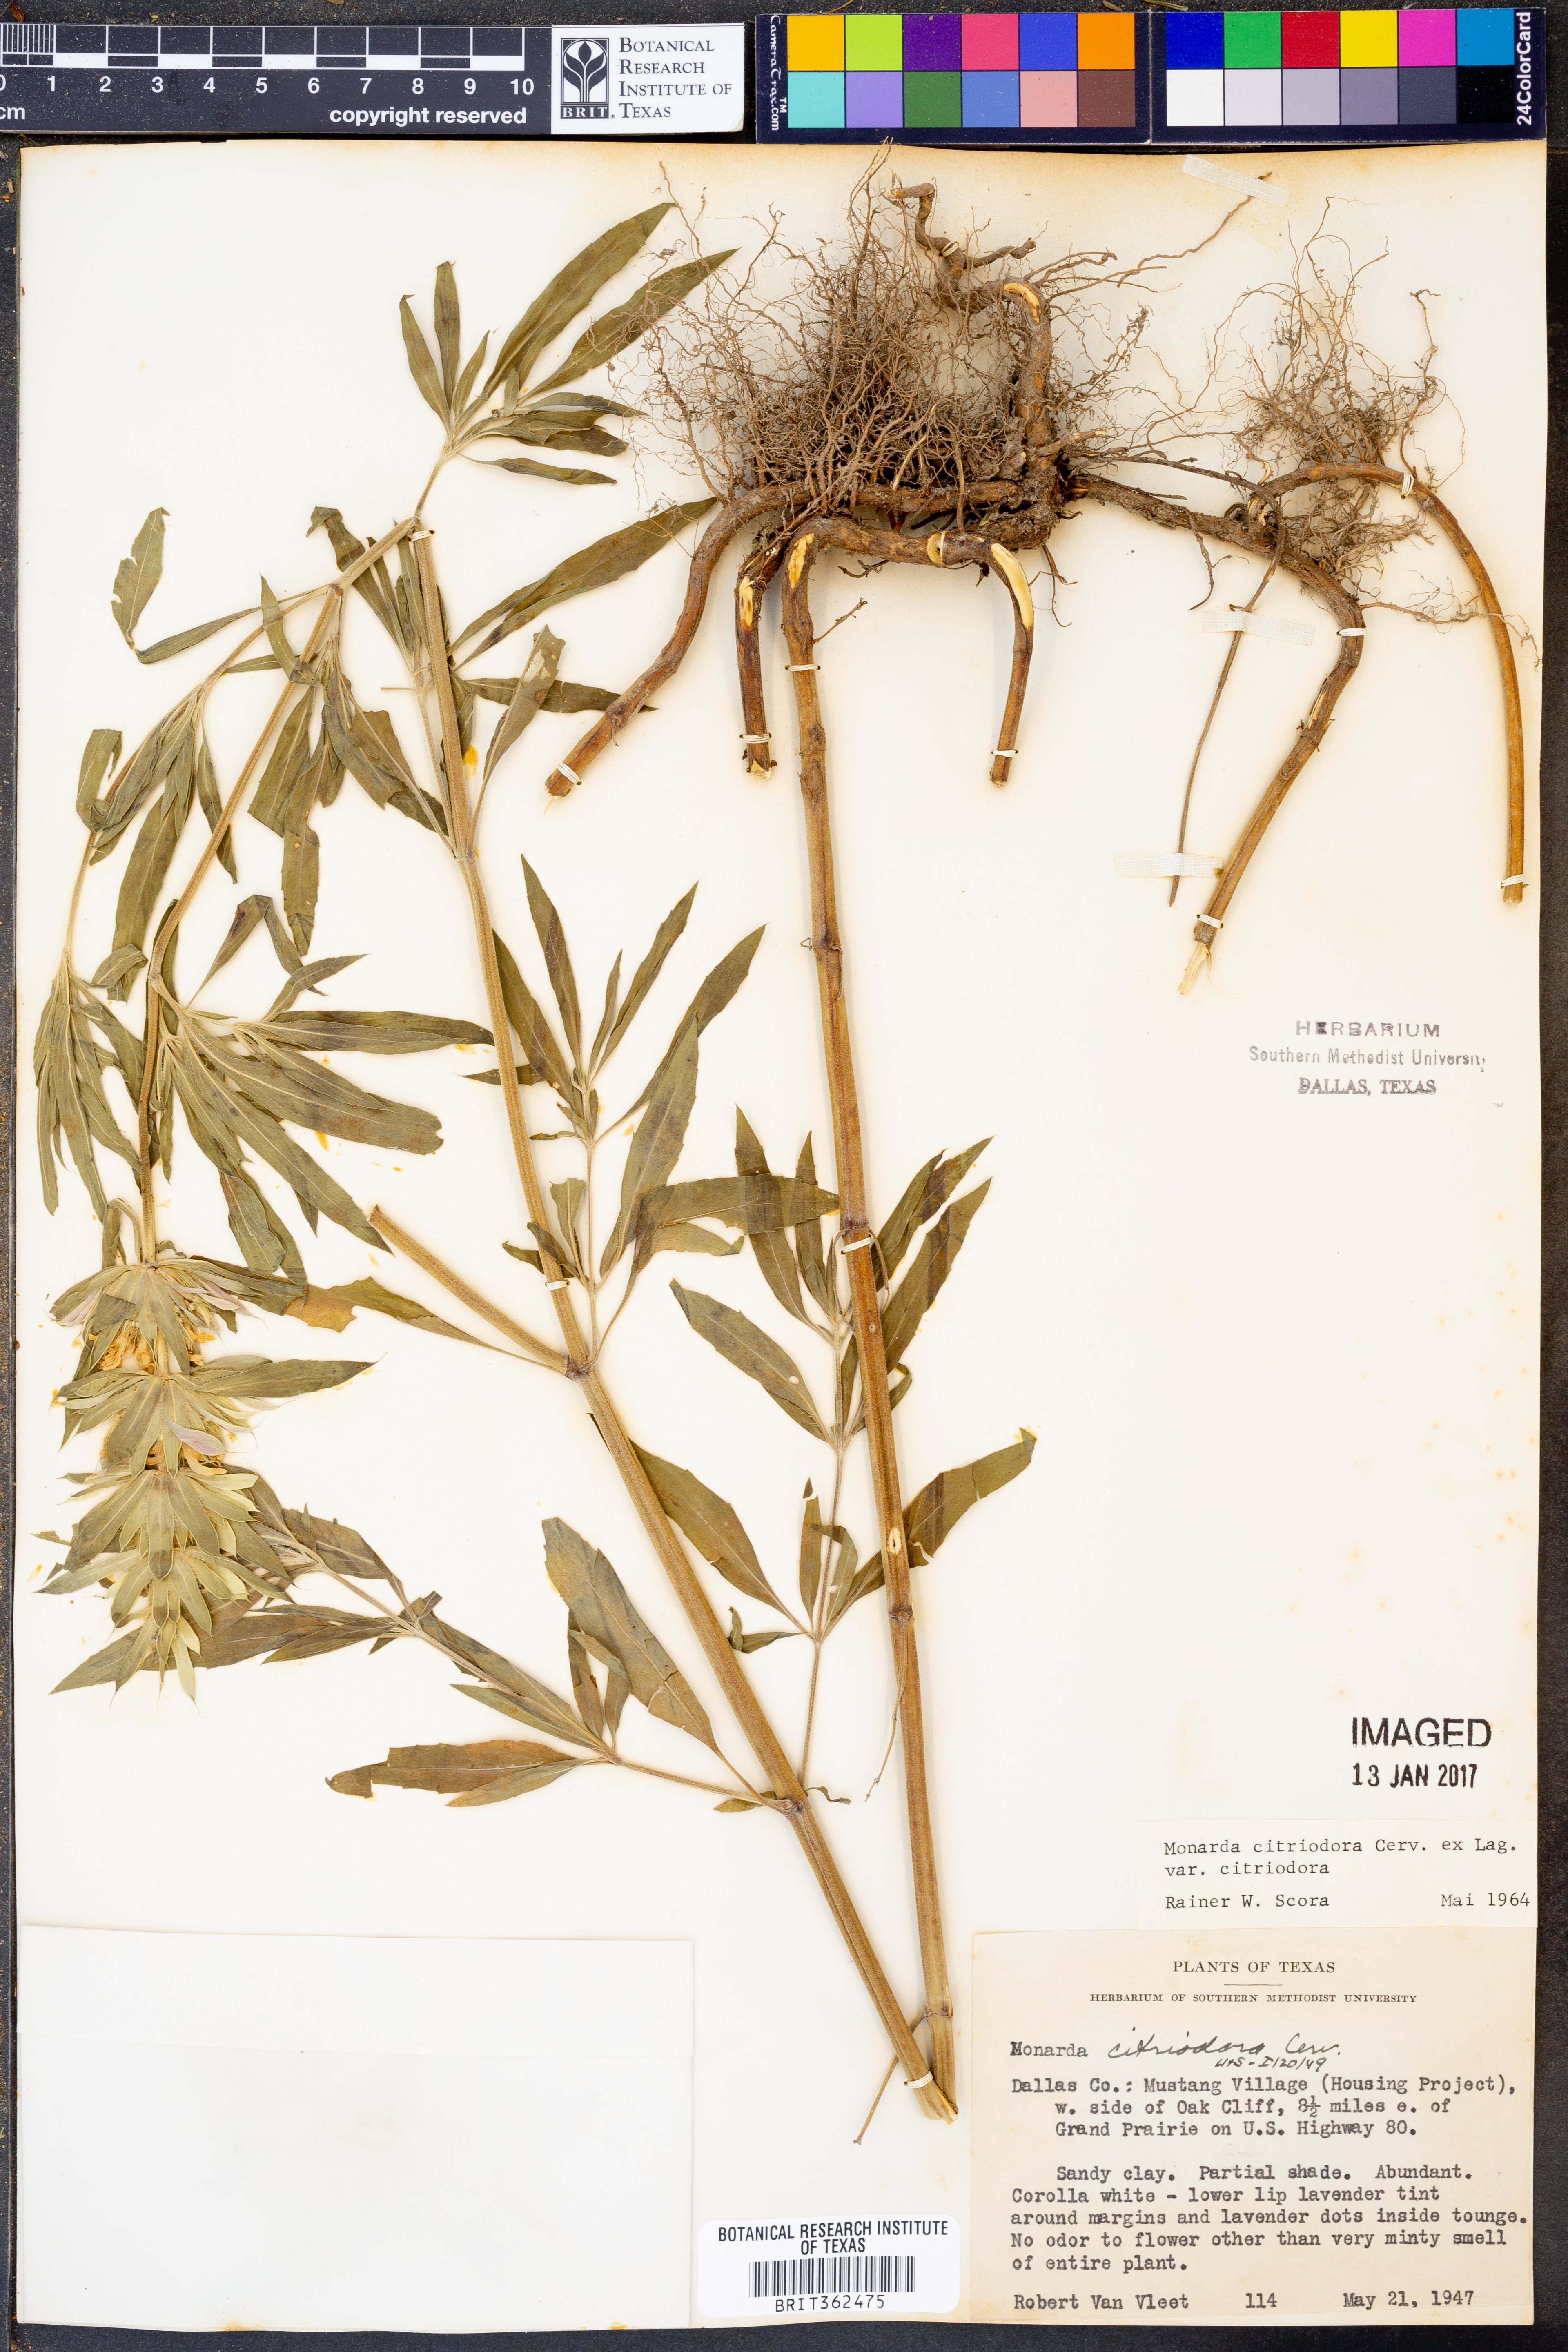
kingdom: Plantae
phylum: Tracheophyta
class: Magnoliopsida
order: Lamiales
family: Lamiaceae
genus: Monarda
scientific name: Monarda citriodora
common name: Lemon beebalm
